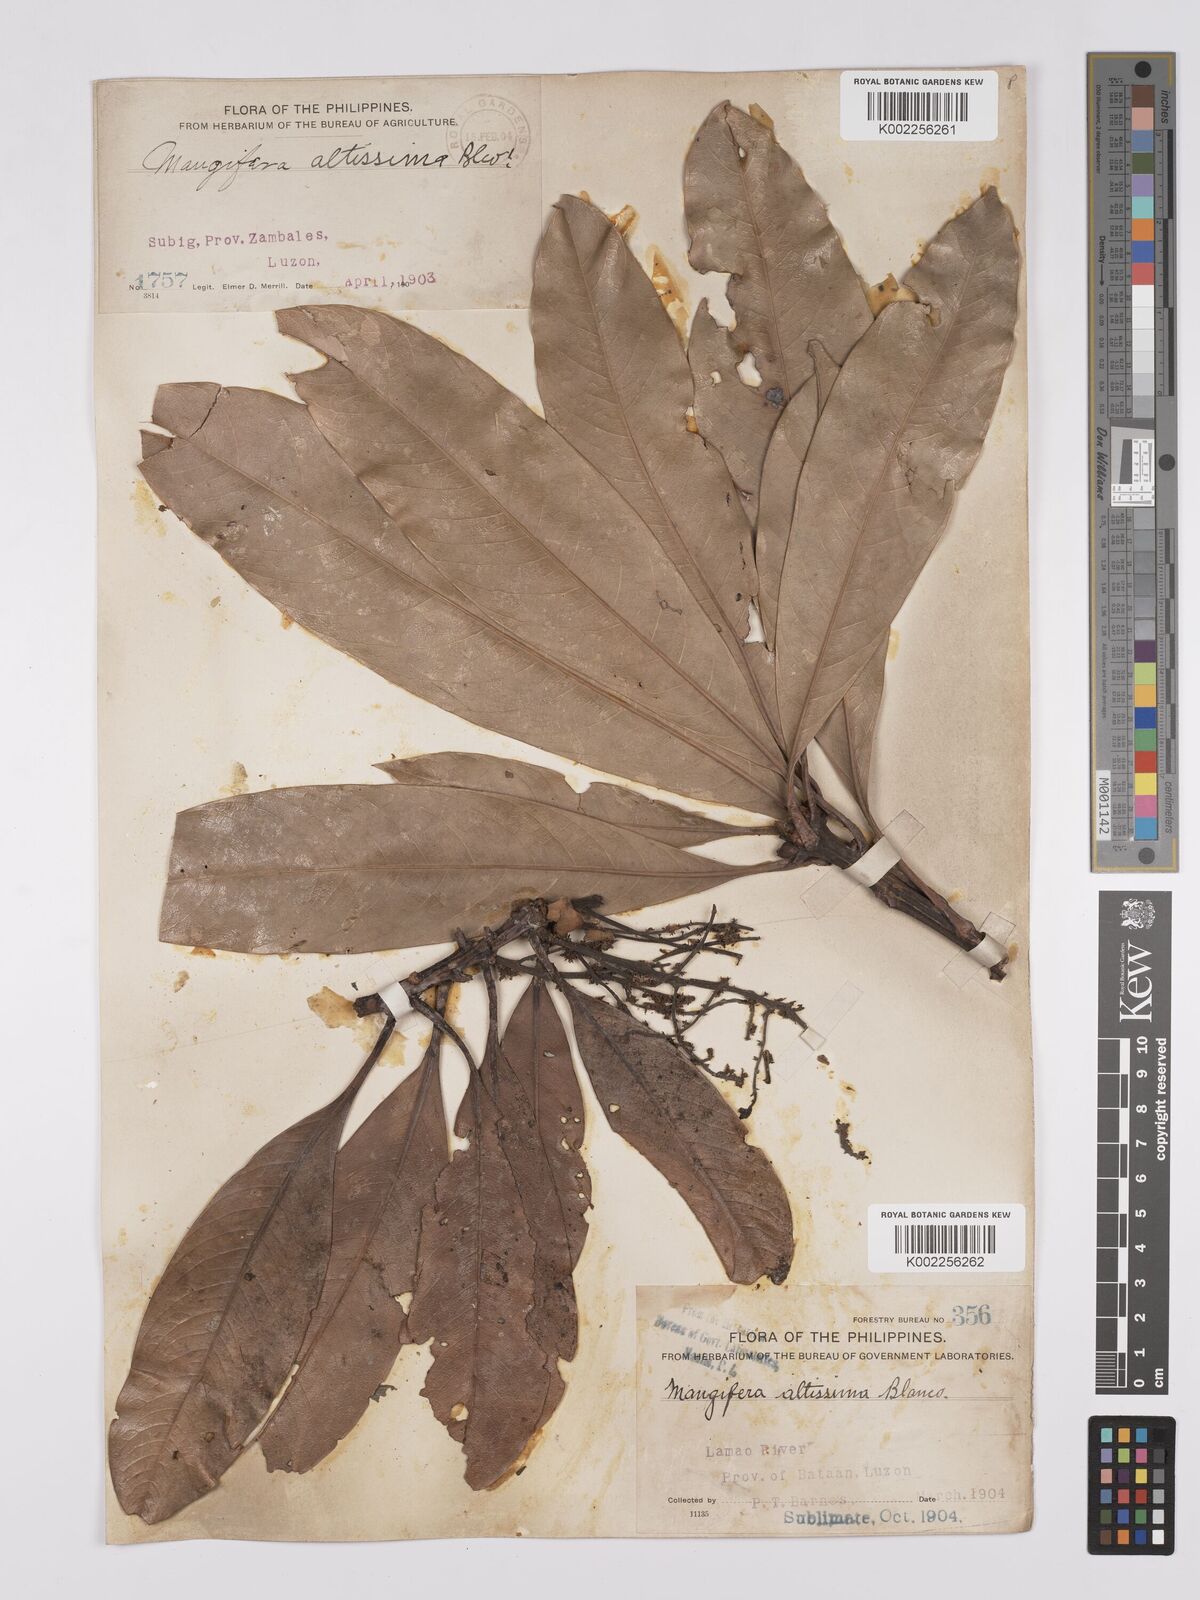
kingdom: Plantae
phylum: Tracheophyta
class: Magnoliopsida
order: Sapindales
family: Anacardiaceae
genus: Mangifera
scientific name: Mangifera altissima
